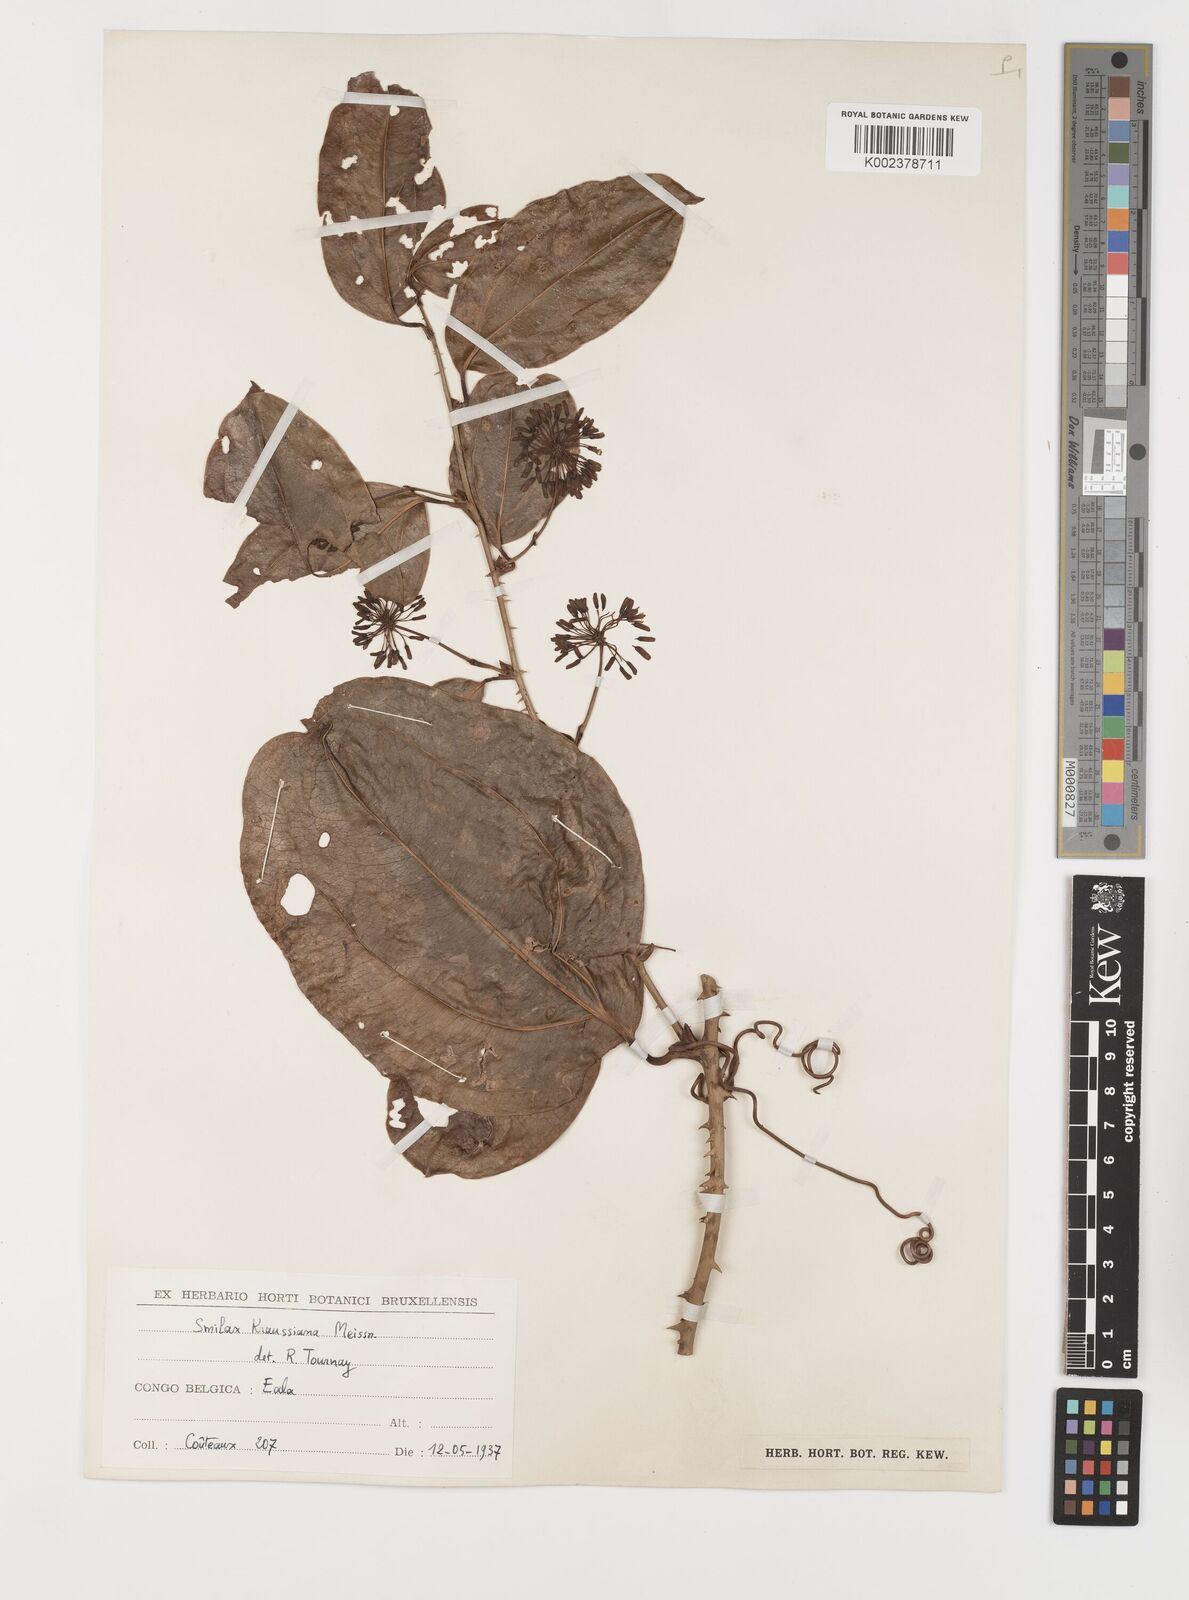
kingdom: Plantae
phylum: Tracheophyta
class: Liliopsida
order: Liliales
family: Smilacaceae
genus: Smilax
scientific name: Smilax anceps
